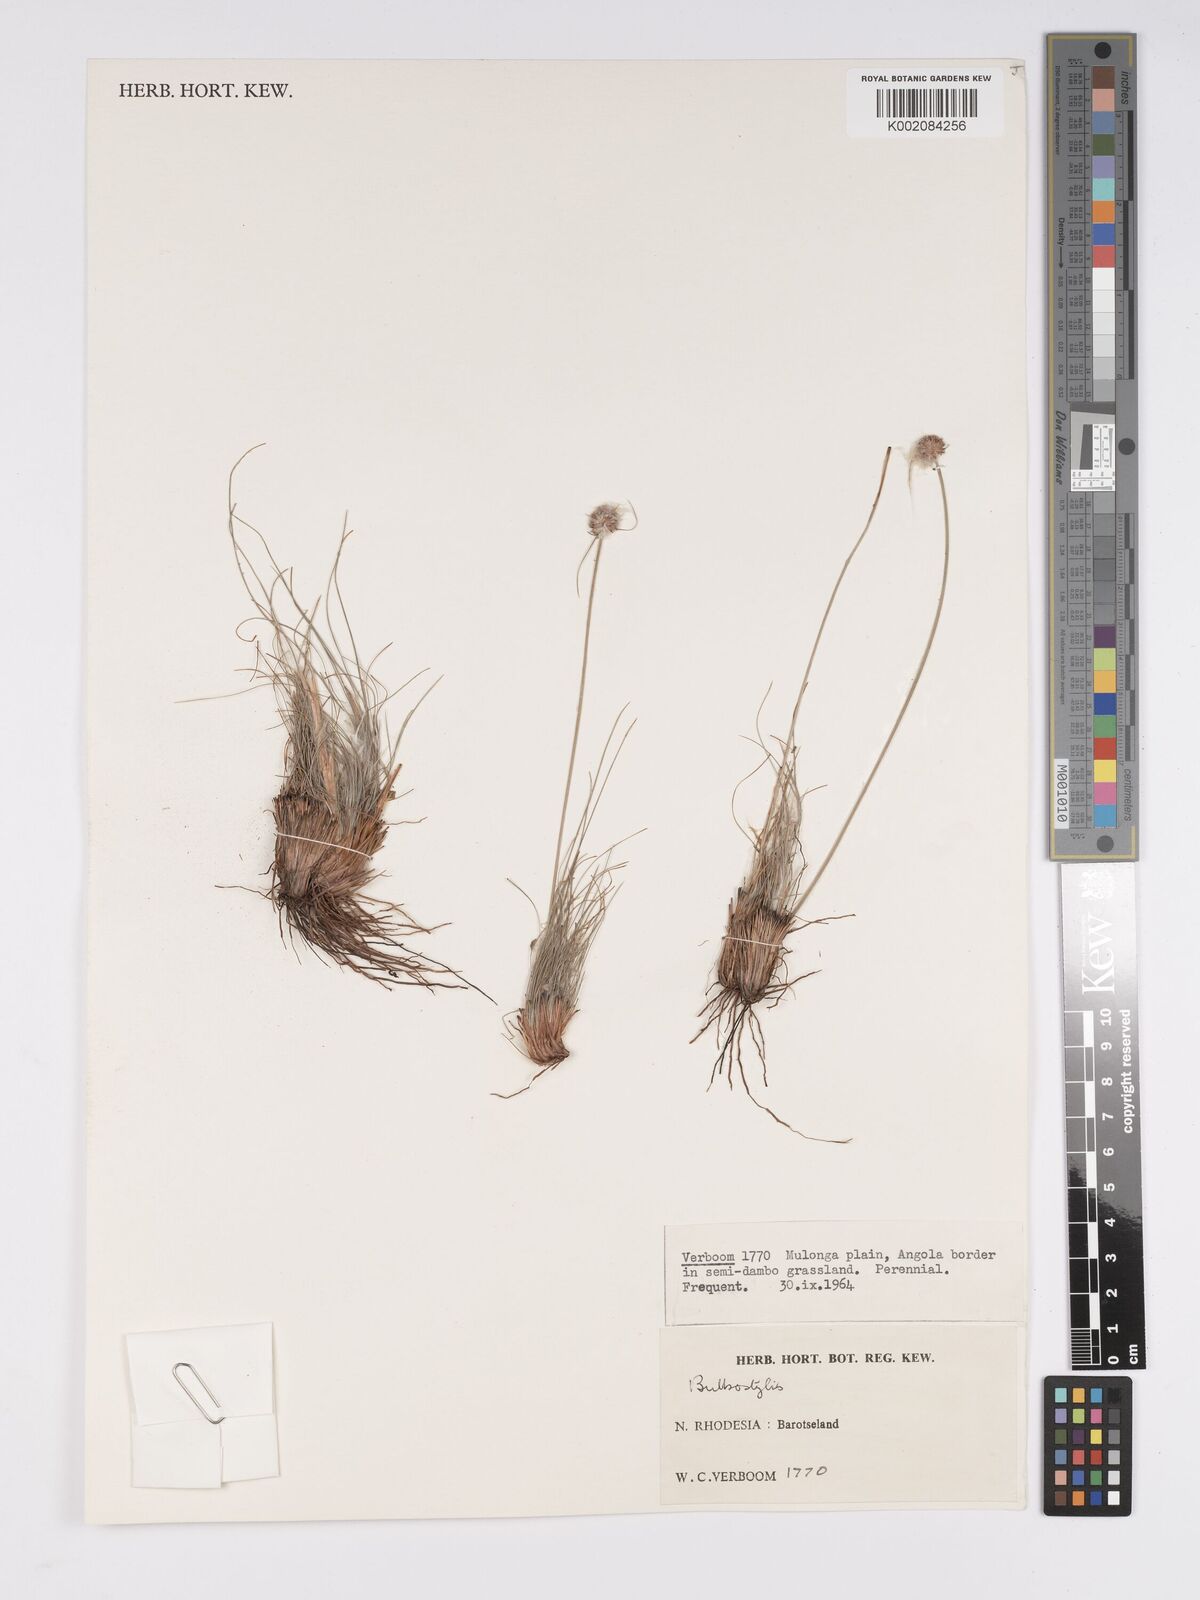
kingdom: Plantae
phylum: Tracheophyta
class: Liliopsida
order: Poales
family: Cyperaceae
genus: Bulbostylis
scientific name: Bulbostylis
